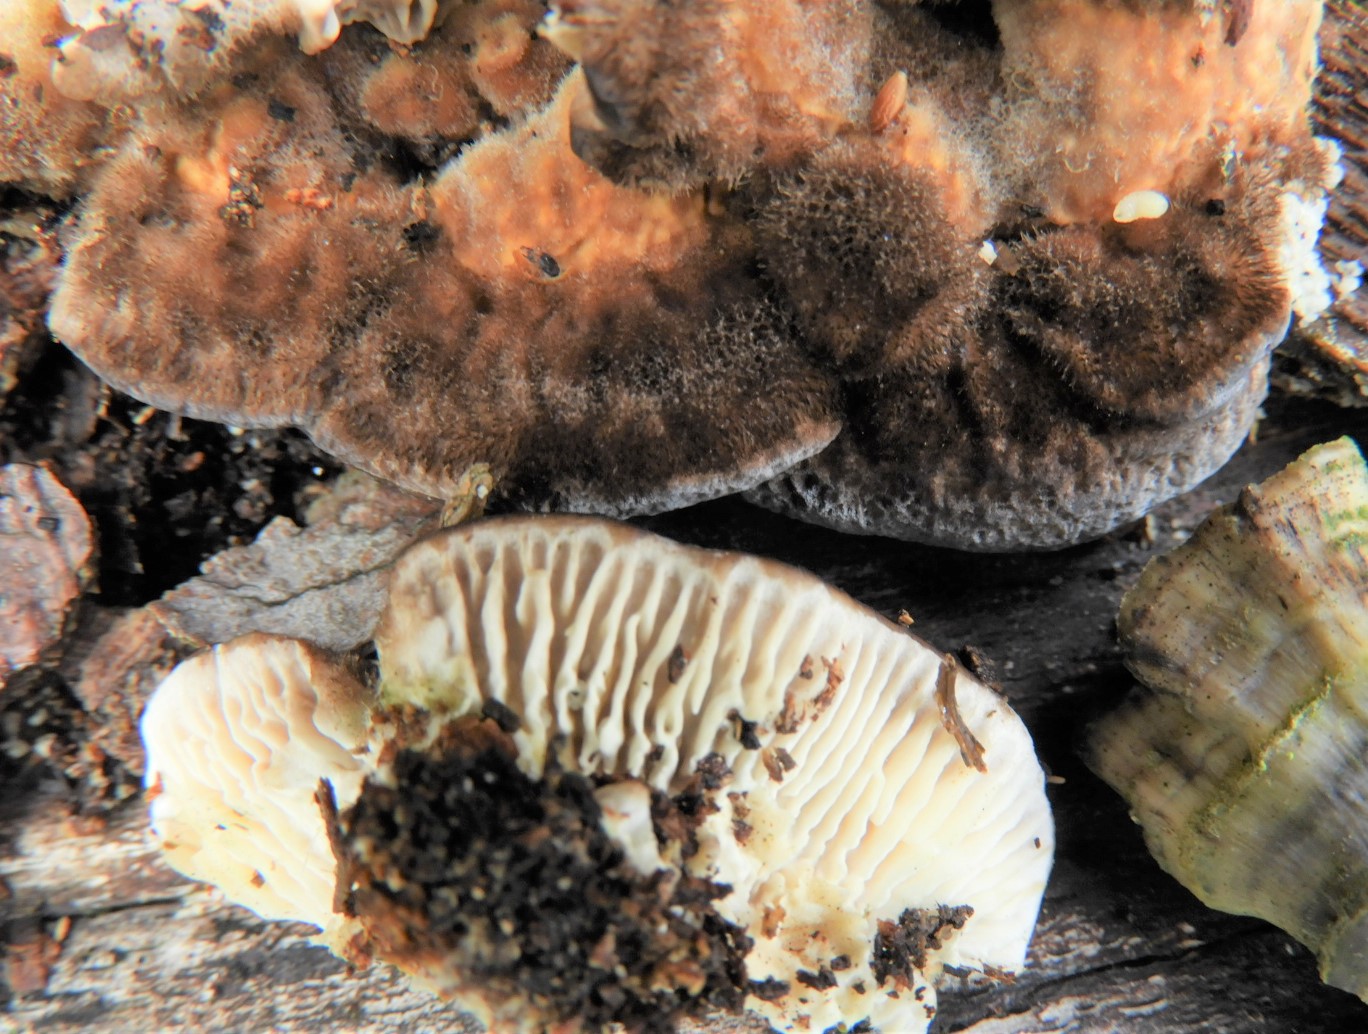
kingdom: Fungi
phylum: Basidiomycota
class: Agaricomycetes
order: Polyporales
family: Polyporaceae
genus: Lenzites
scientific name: Lenzites betulinus
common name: birke-læderporesvamp
